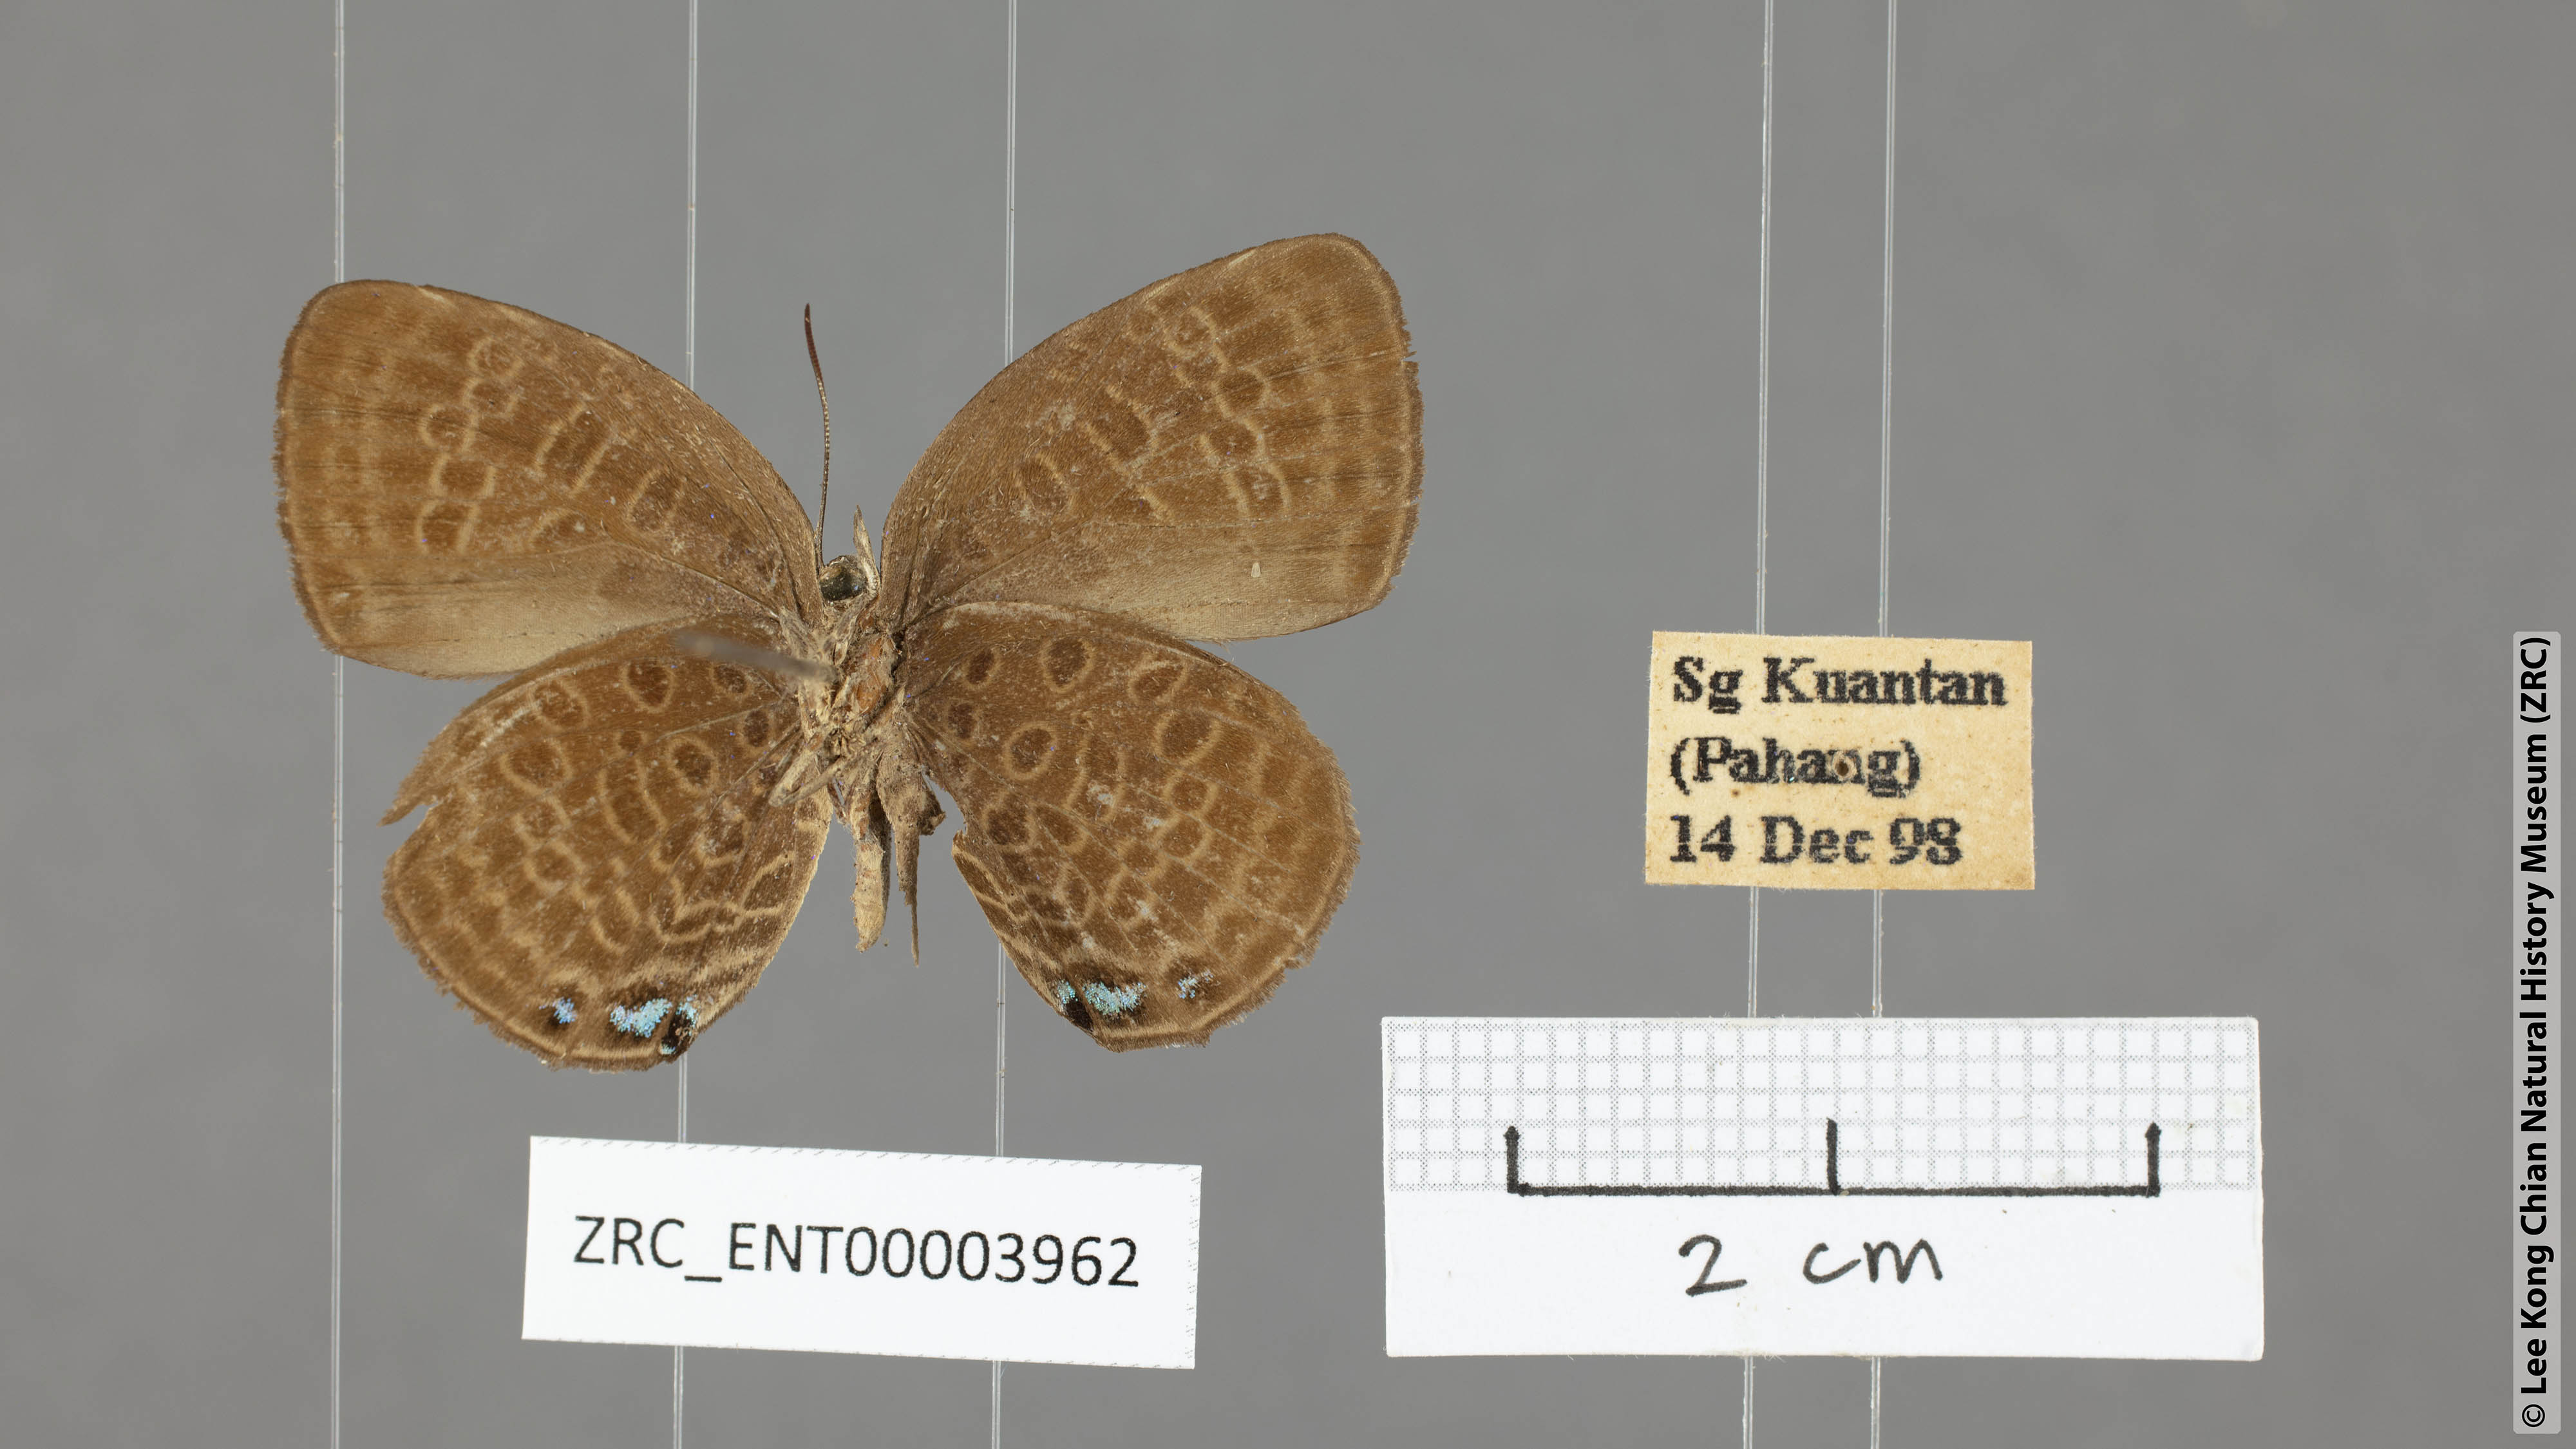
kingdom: Animalia
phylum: Arthropoda
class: Insecta
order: Lepidoptera
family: Lycaenidae
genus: Arhopala
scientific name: Arhopala hypomuta
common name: Violet oakblue
